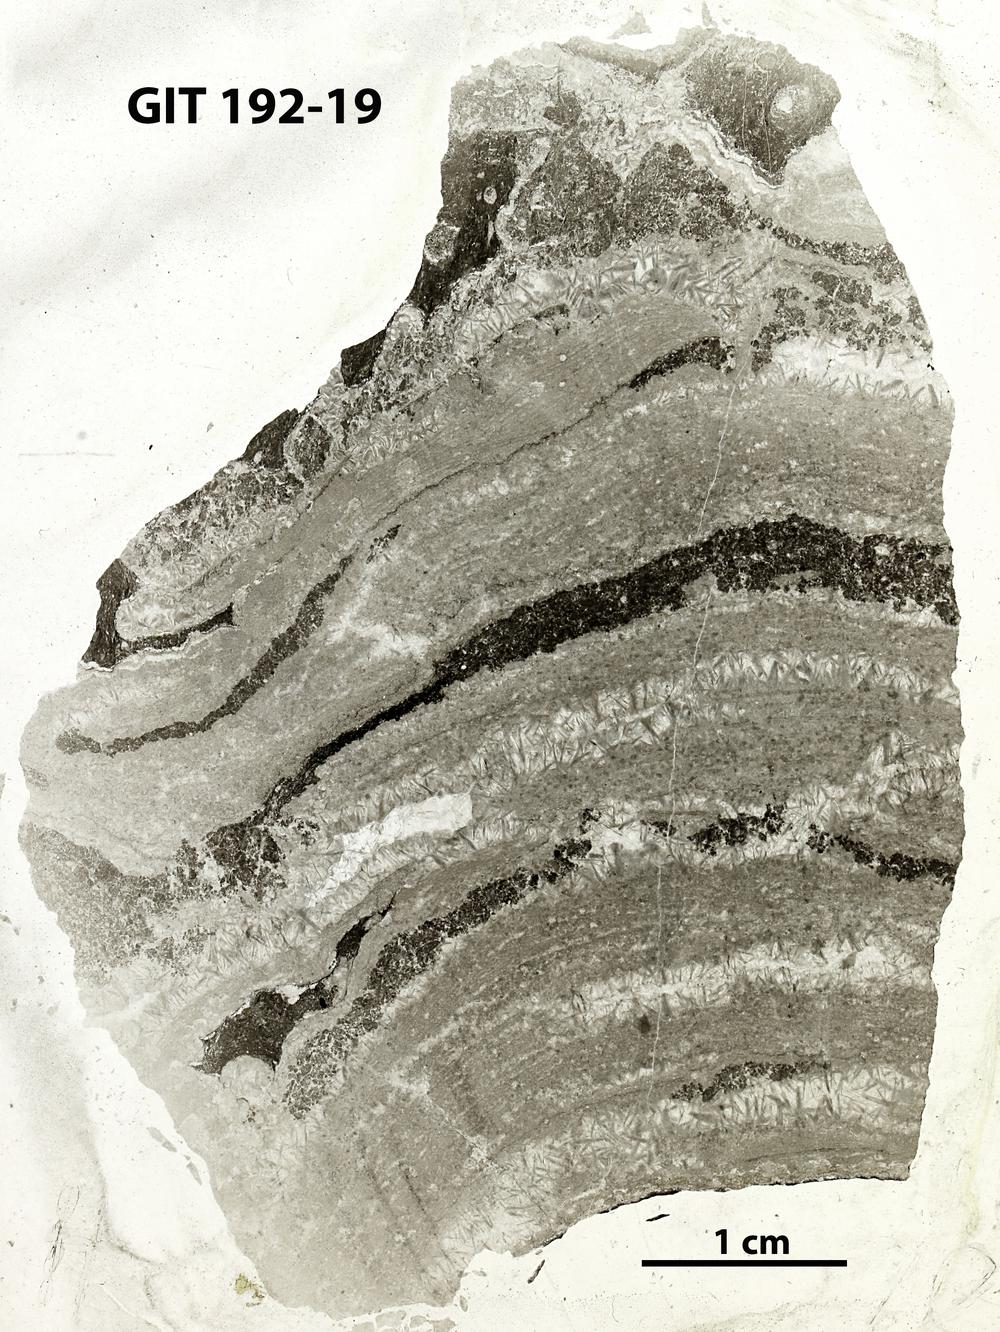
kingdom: Animalia
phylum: Porifera
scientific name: Porifera
